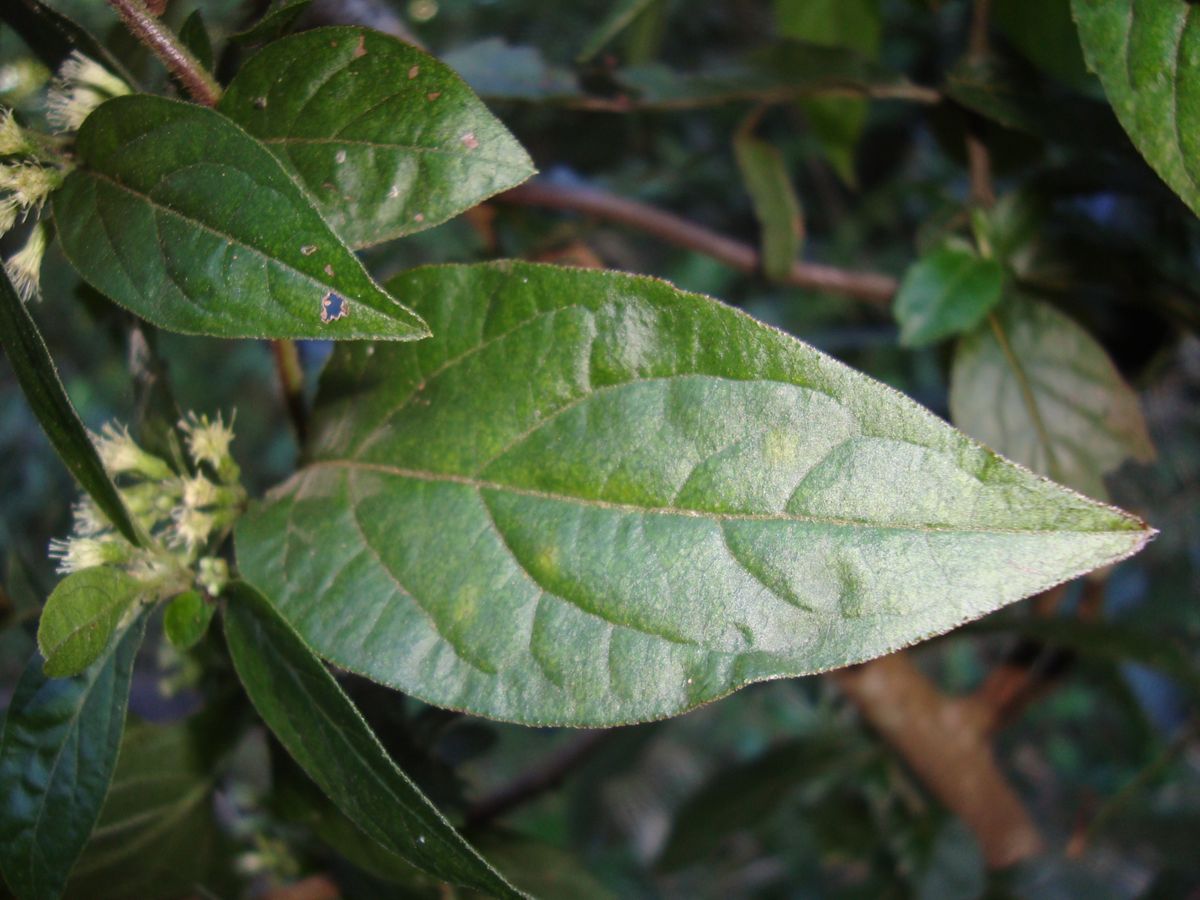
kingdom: Plantae
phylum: Tracheophyta
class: Magnoliopsida
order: Asterales
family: Asteraceae
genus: Archibaccharis
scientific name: Archibaccharis flexilis
